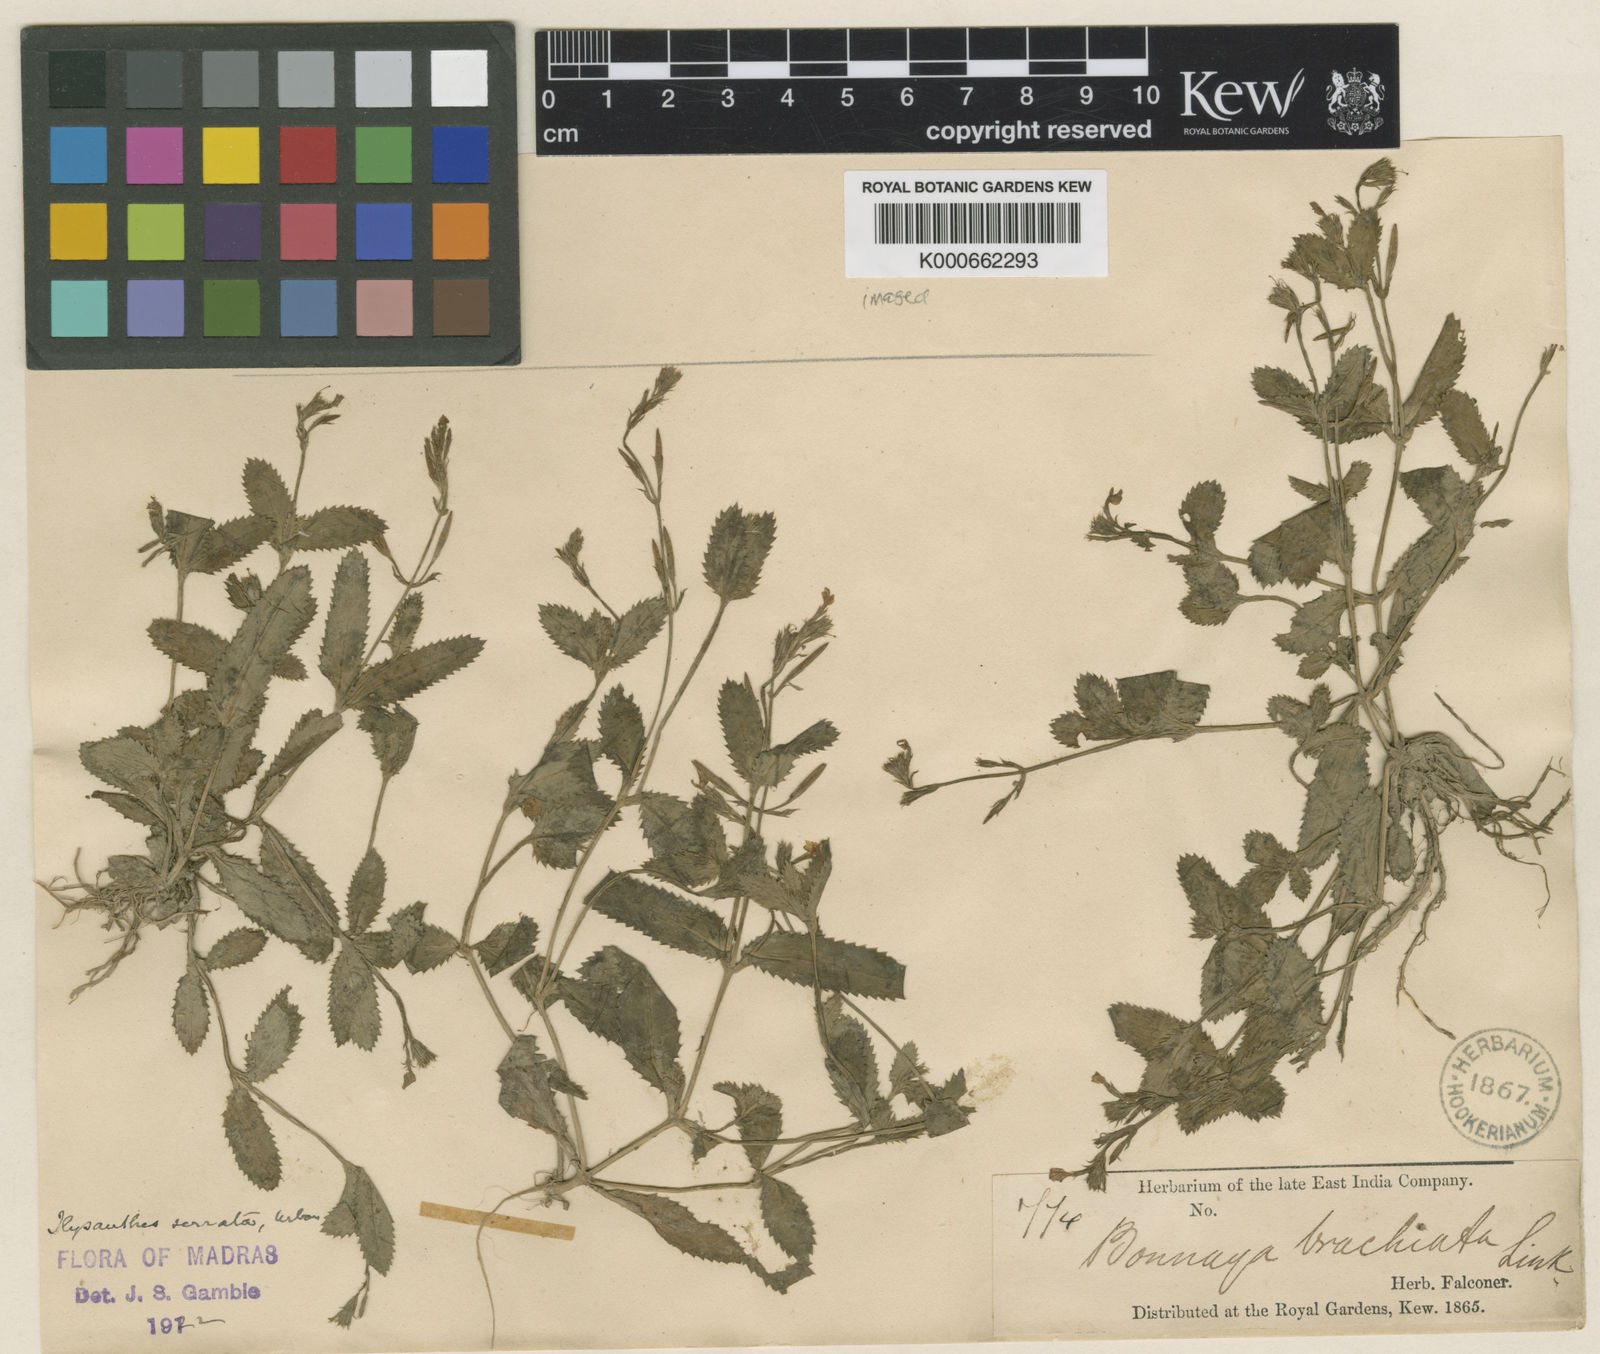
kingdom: Plantae
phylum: Tracheophyta
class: Magnoliopsida
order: Lamiales
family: Linderniaceae
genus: Bonnaya
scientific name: Bonnaya ciliata
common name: Hairy slitwort
